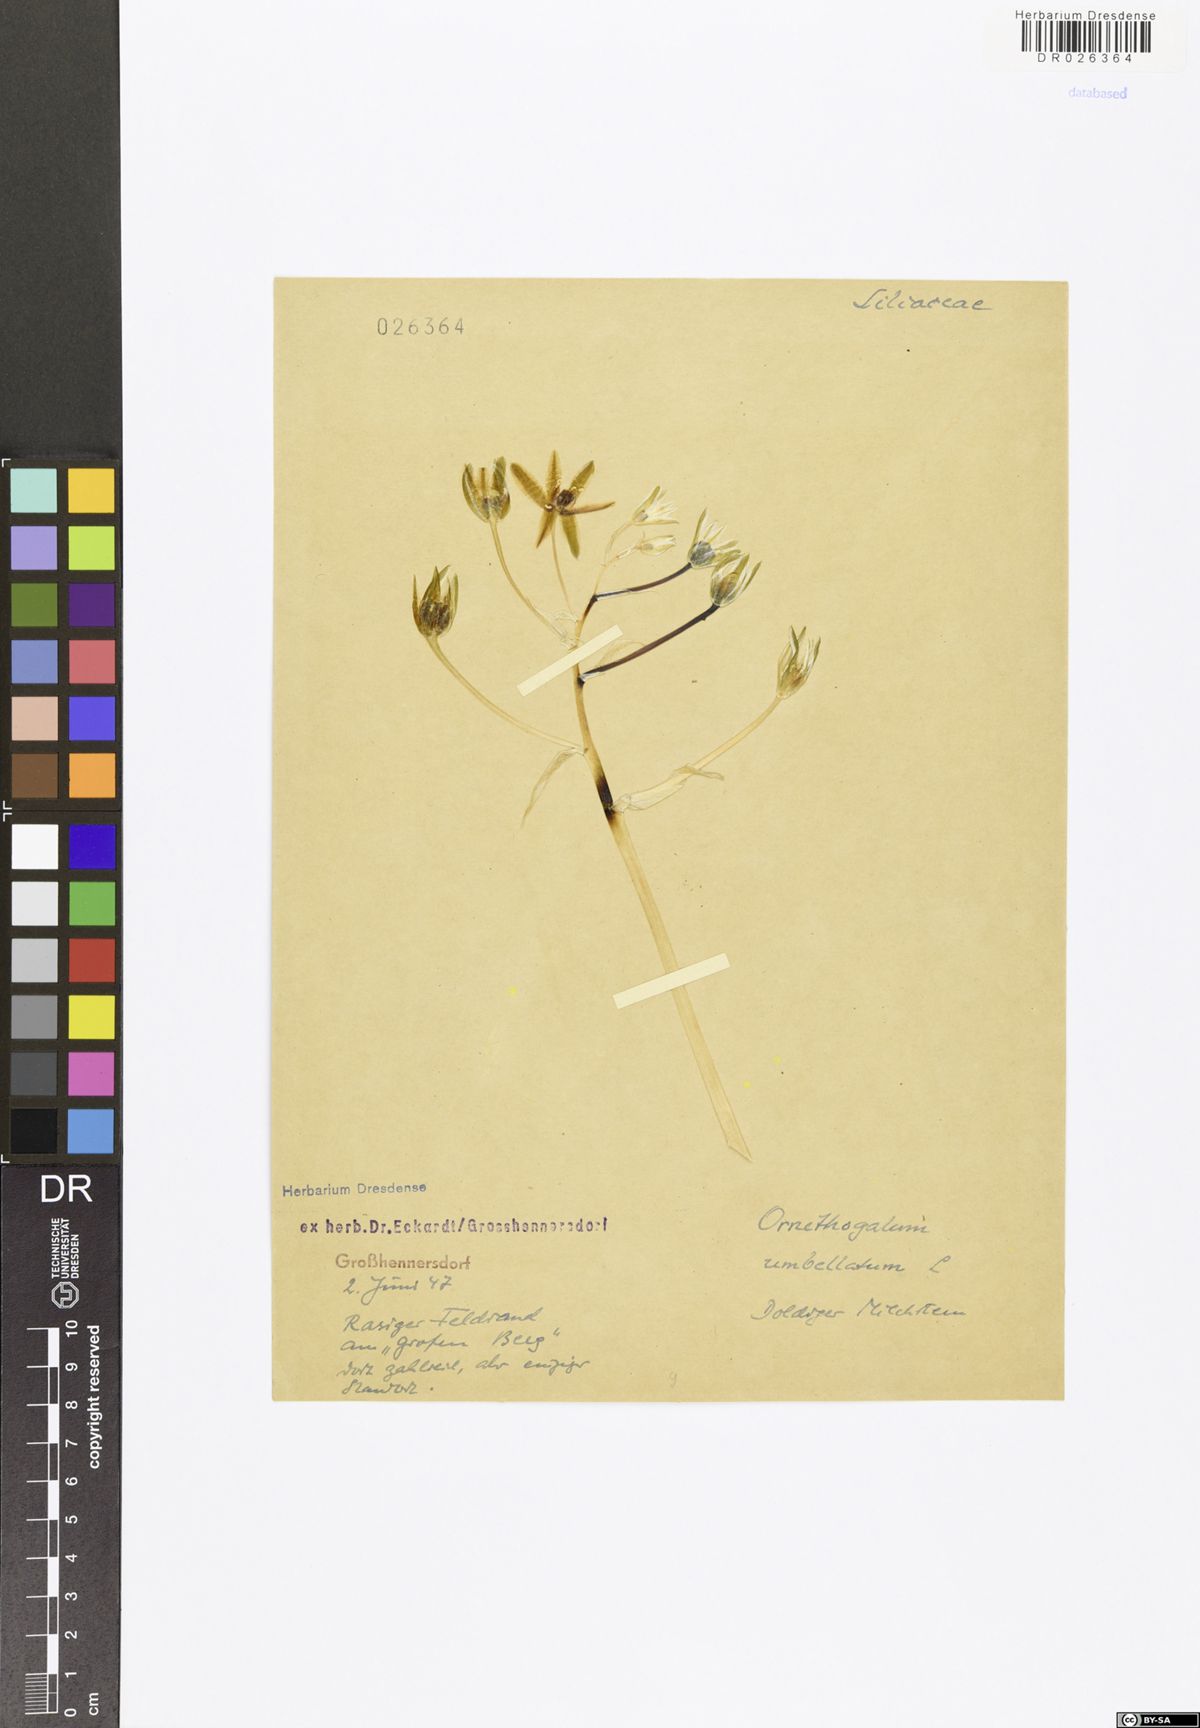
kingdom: Plantae
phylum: Tracheophyta
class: Liliopsida
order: Asparagales
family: Asparagaceae
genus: Ornithogalum
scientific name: Ornithogalum umbellatum
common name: Garden star-of-bethlehem
